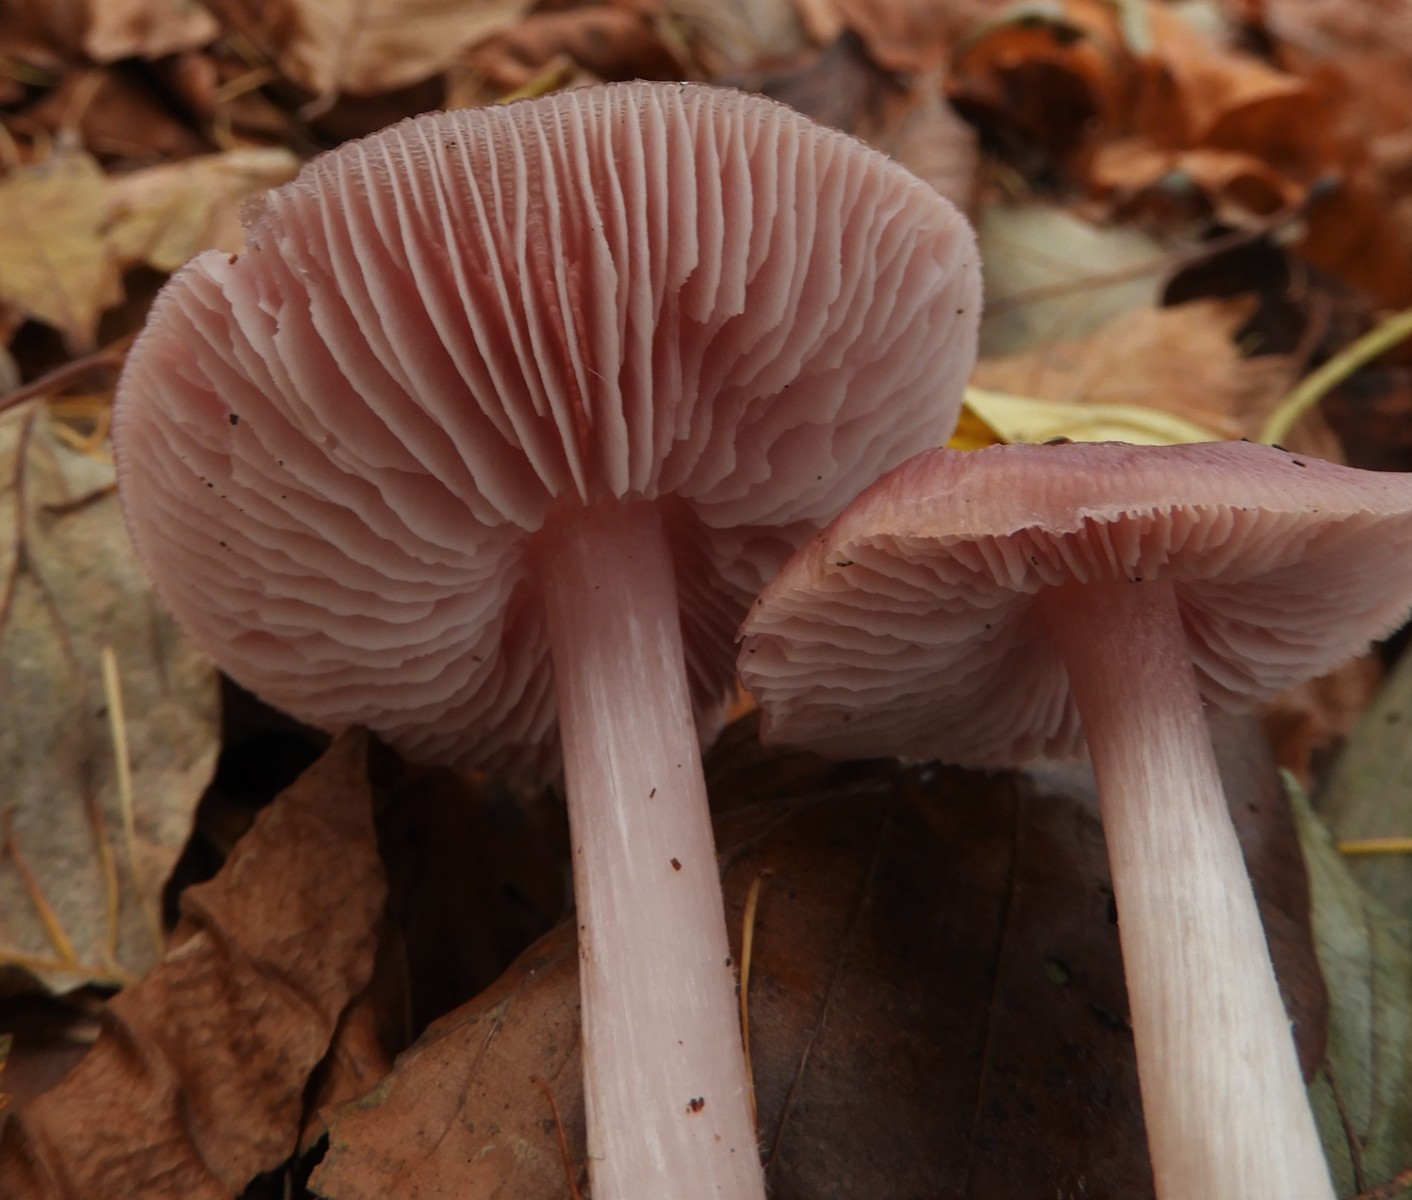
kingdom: Fungi
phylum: Basidiomycota
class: Agaricomycetes
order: Agaricales
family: Mycenaceae
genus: Mycena
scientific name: Mycena rosea
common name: rosa huesvamp
